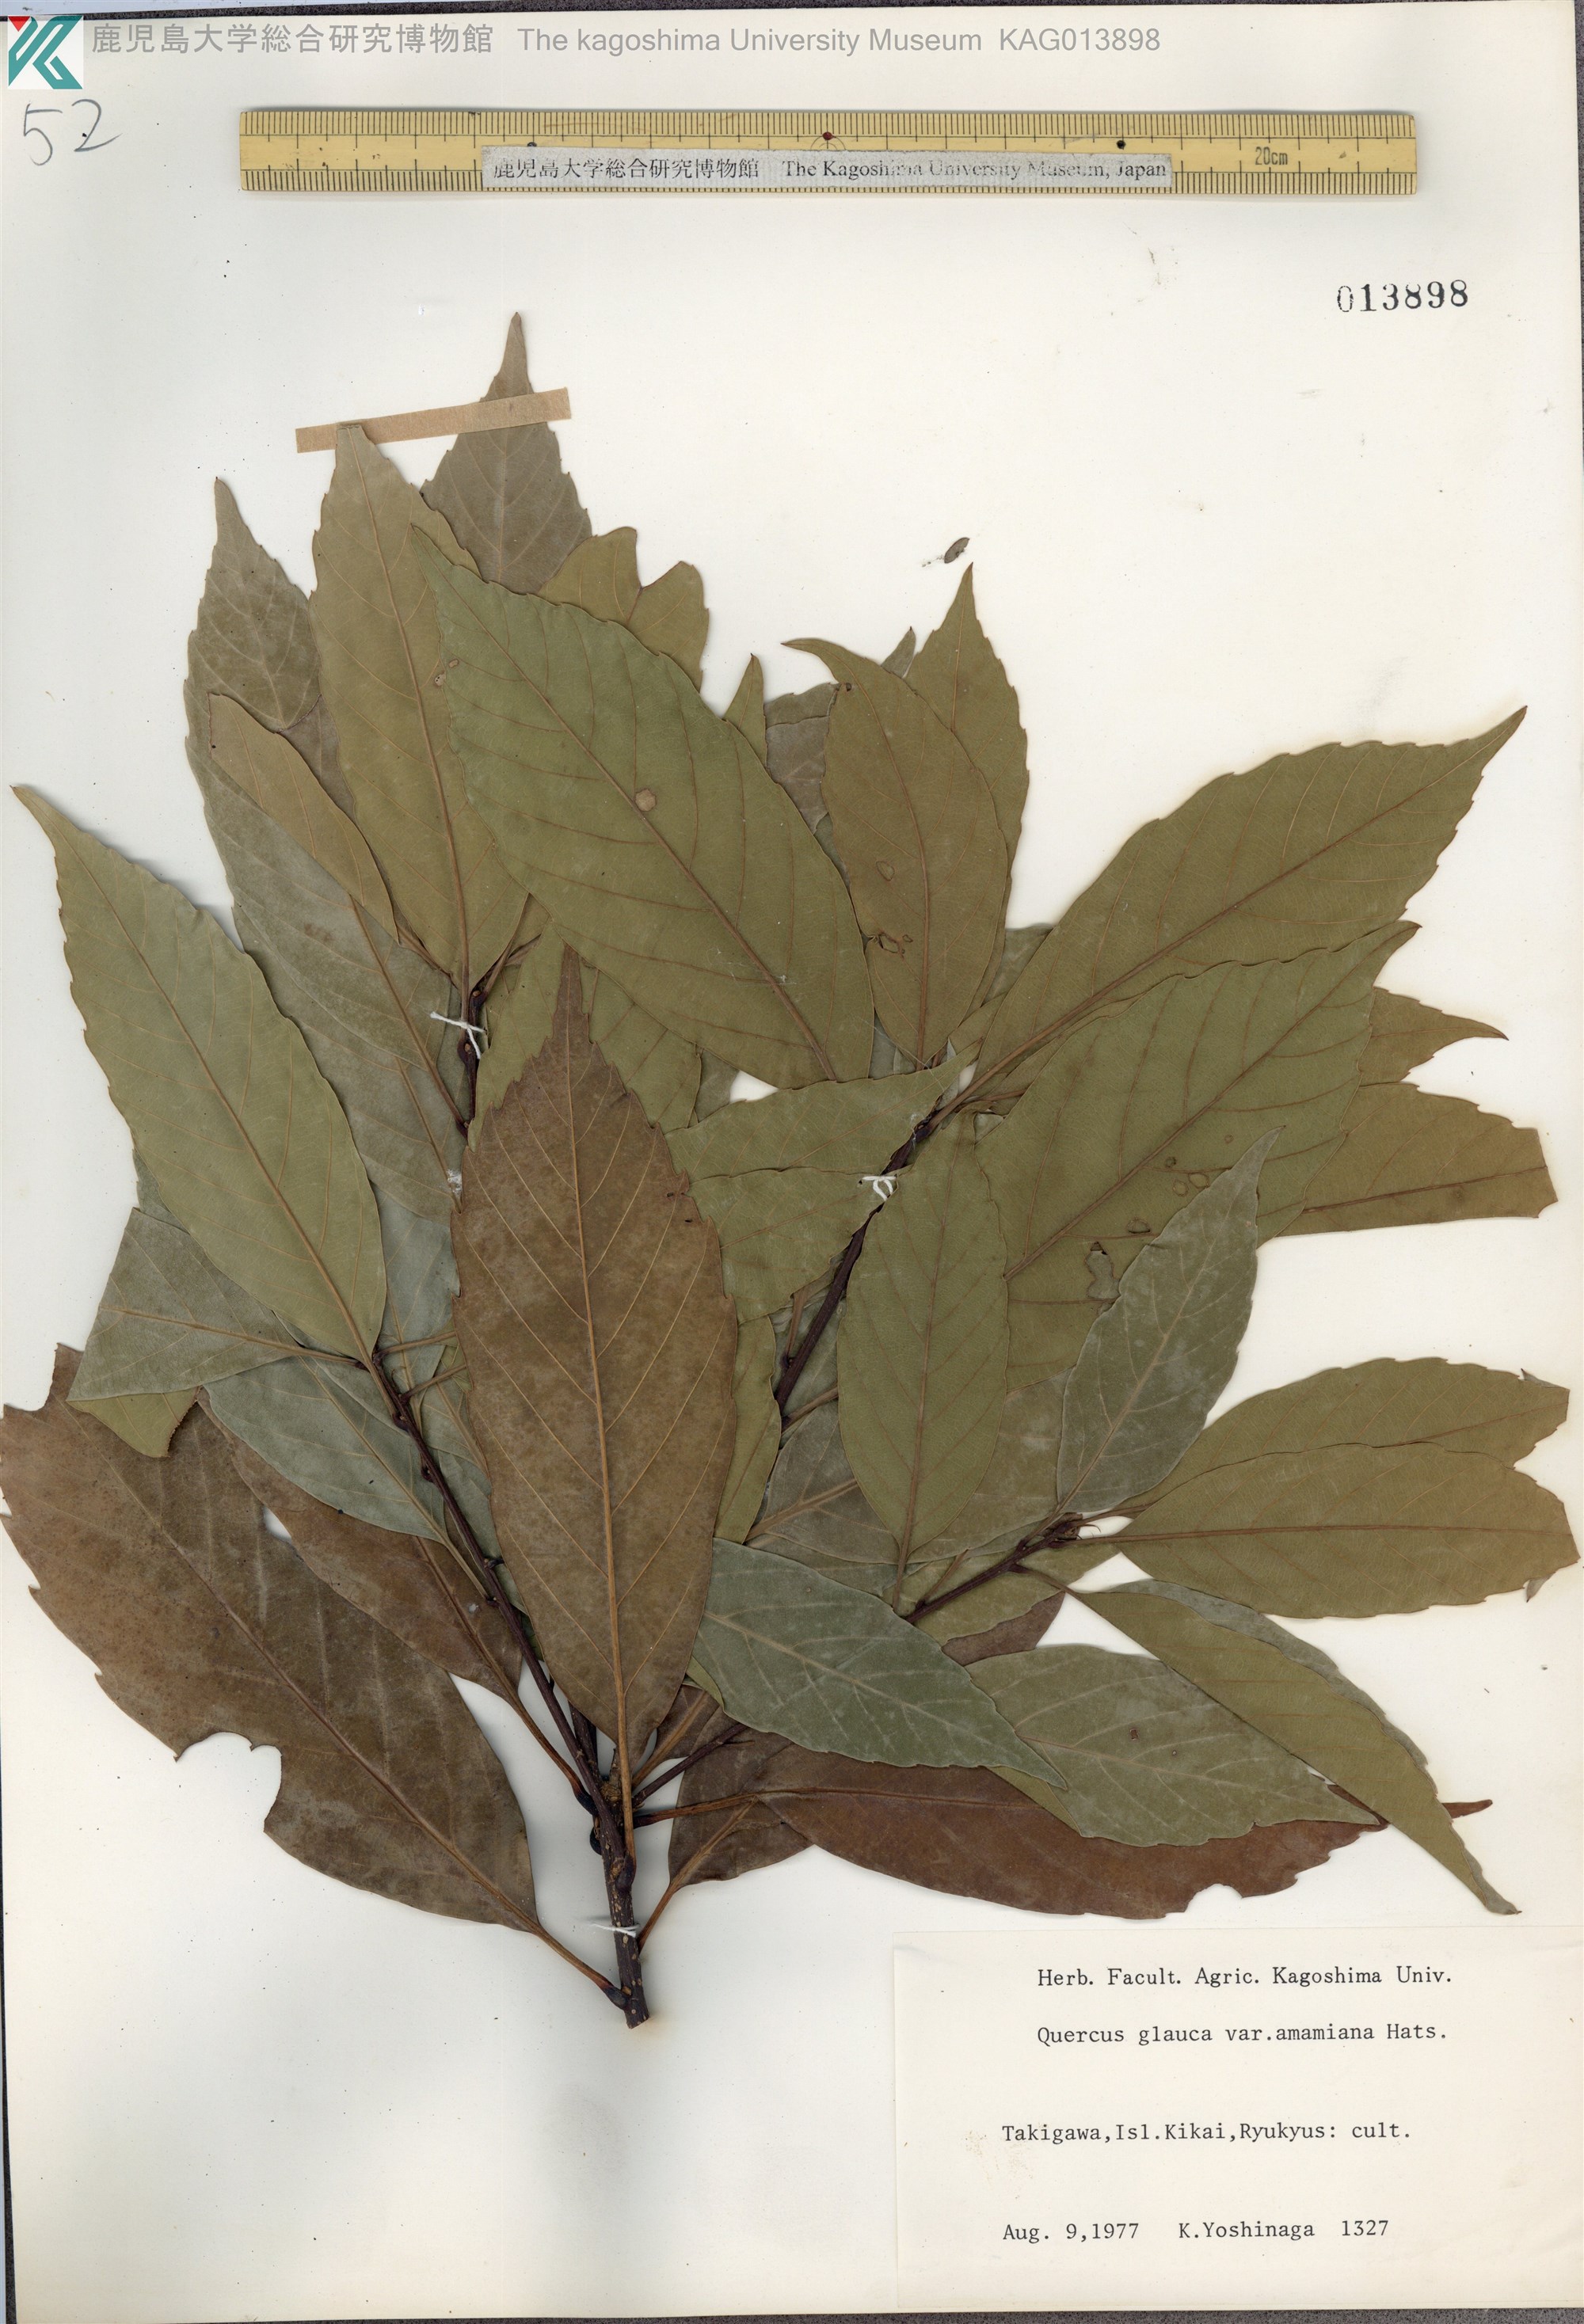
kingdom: Plantae
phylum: Tracheophyta
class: Magnoliopsida
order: Fagales
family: Fagaceae
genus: Quercus
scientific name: Quercus glauca
